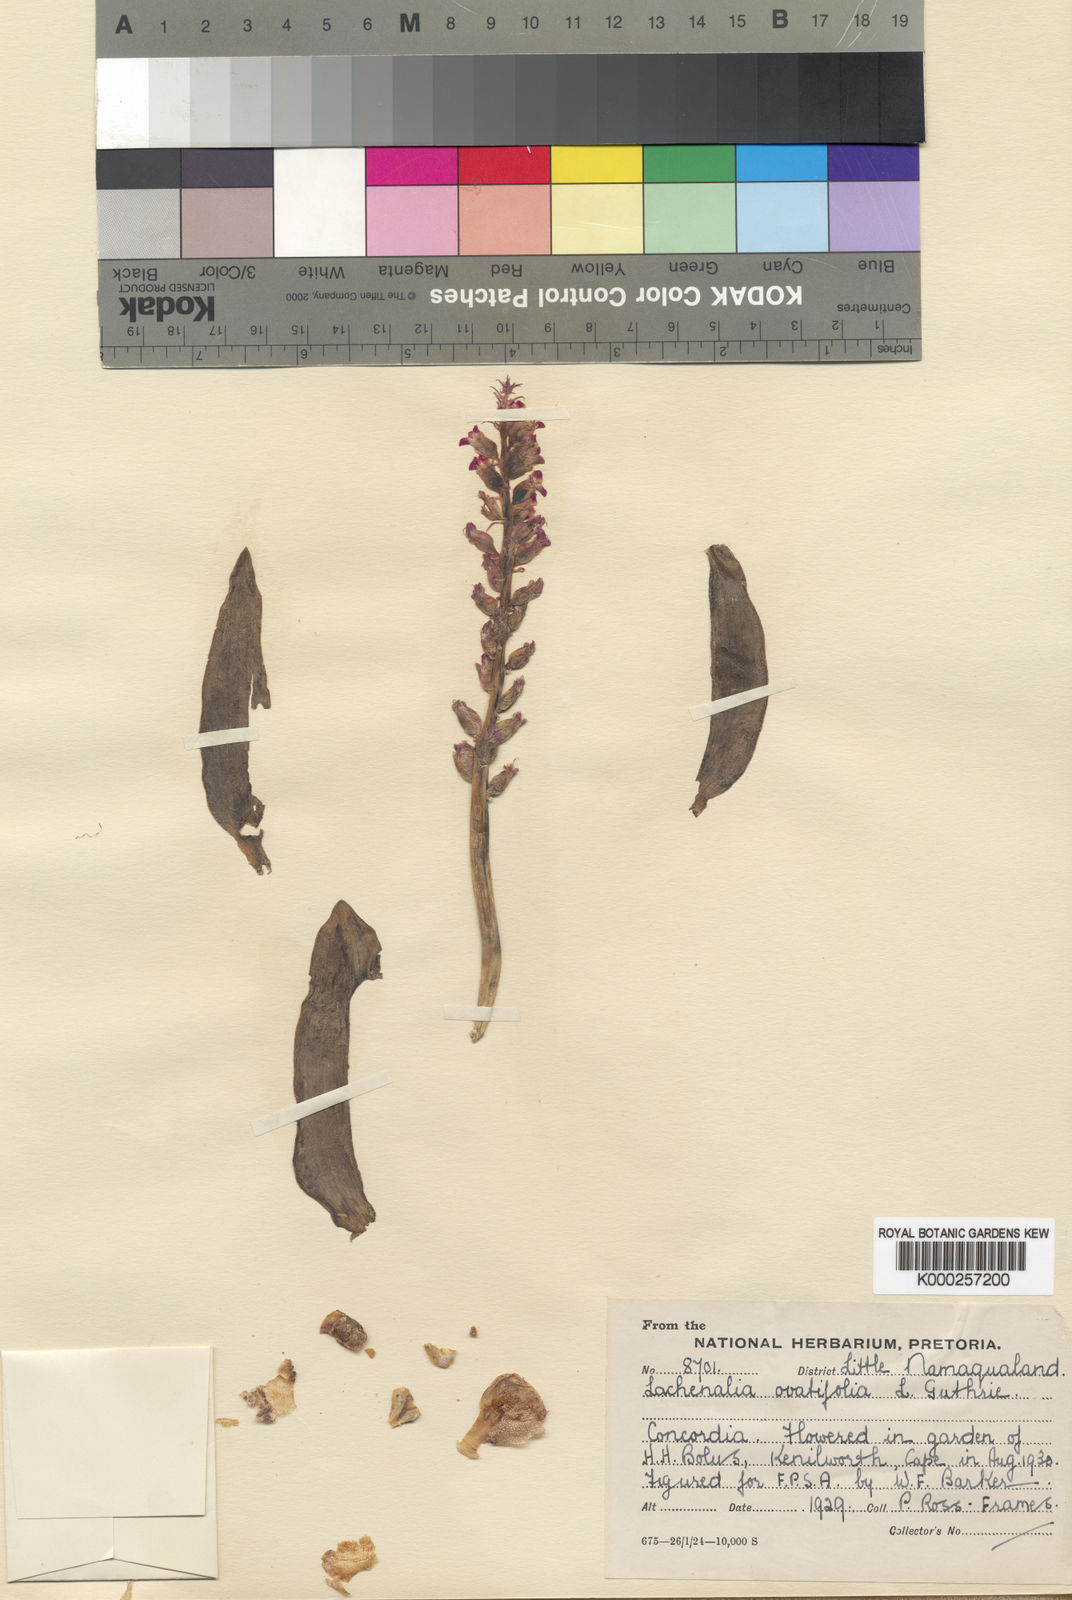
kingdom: Plantae
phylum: Tracheophyta
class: Liliopsida
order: Asparagales
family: Asparagaceae
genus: Lachenalia
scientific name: Lachenalia carnosa
